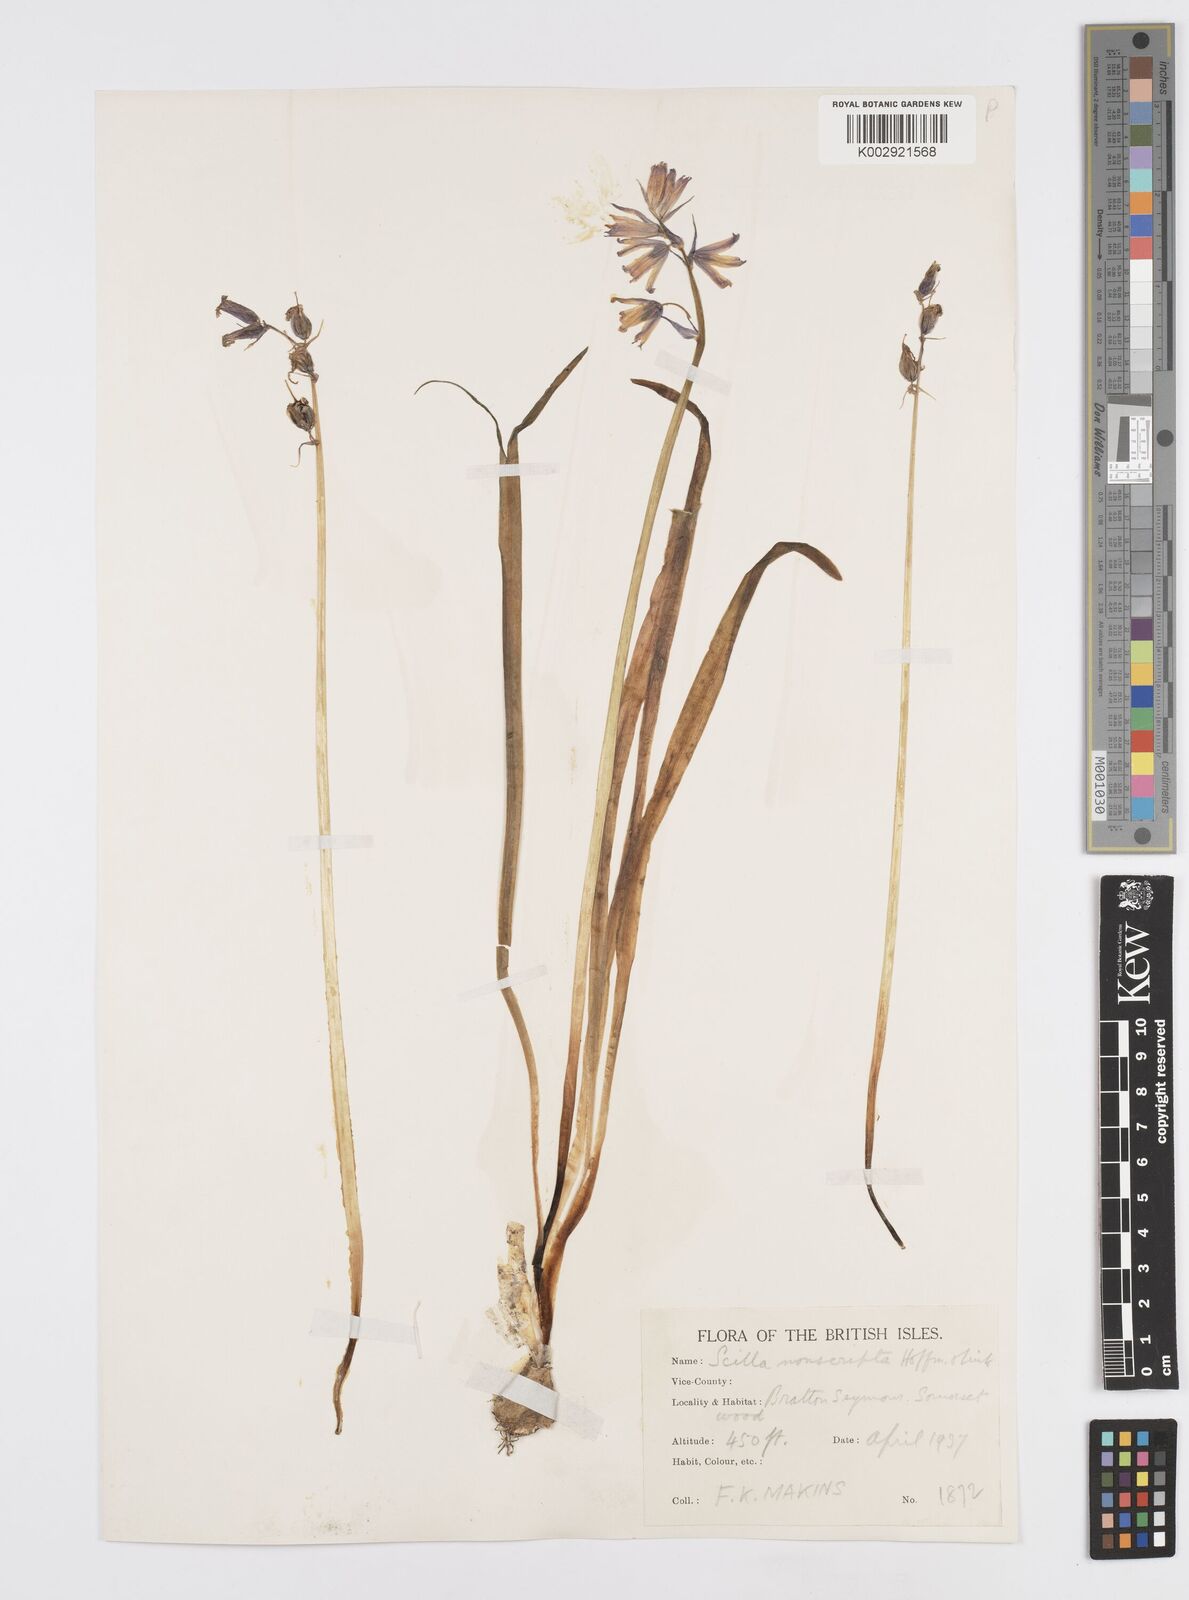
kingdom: Plantae
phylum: Tracheophyta
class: Liliopsida
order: Asparagales
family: Asparagaceae
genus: Hyacinthoides
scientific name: Hyacinthoides non-scripta
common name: Bluebell
